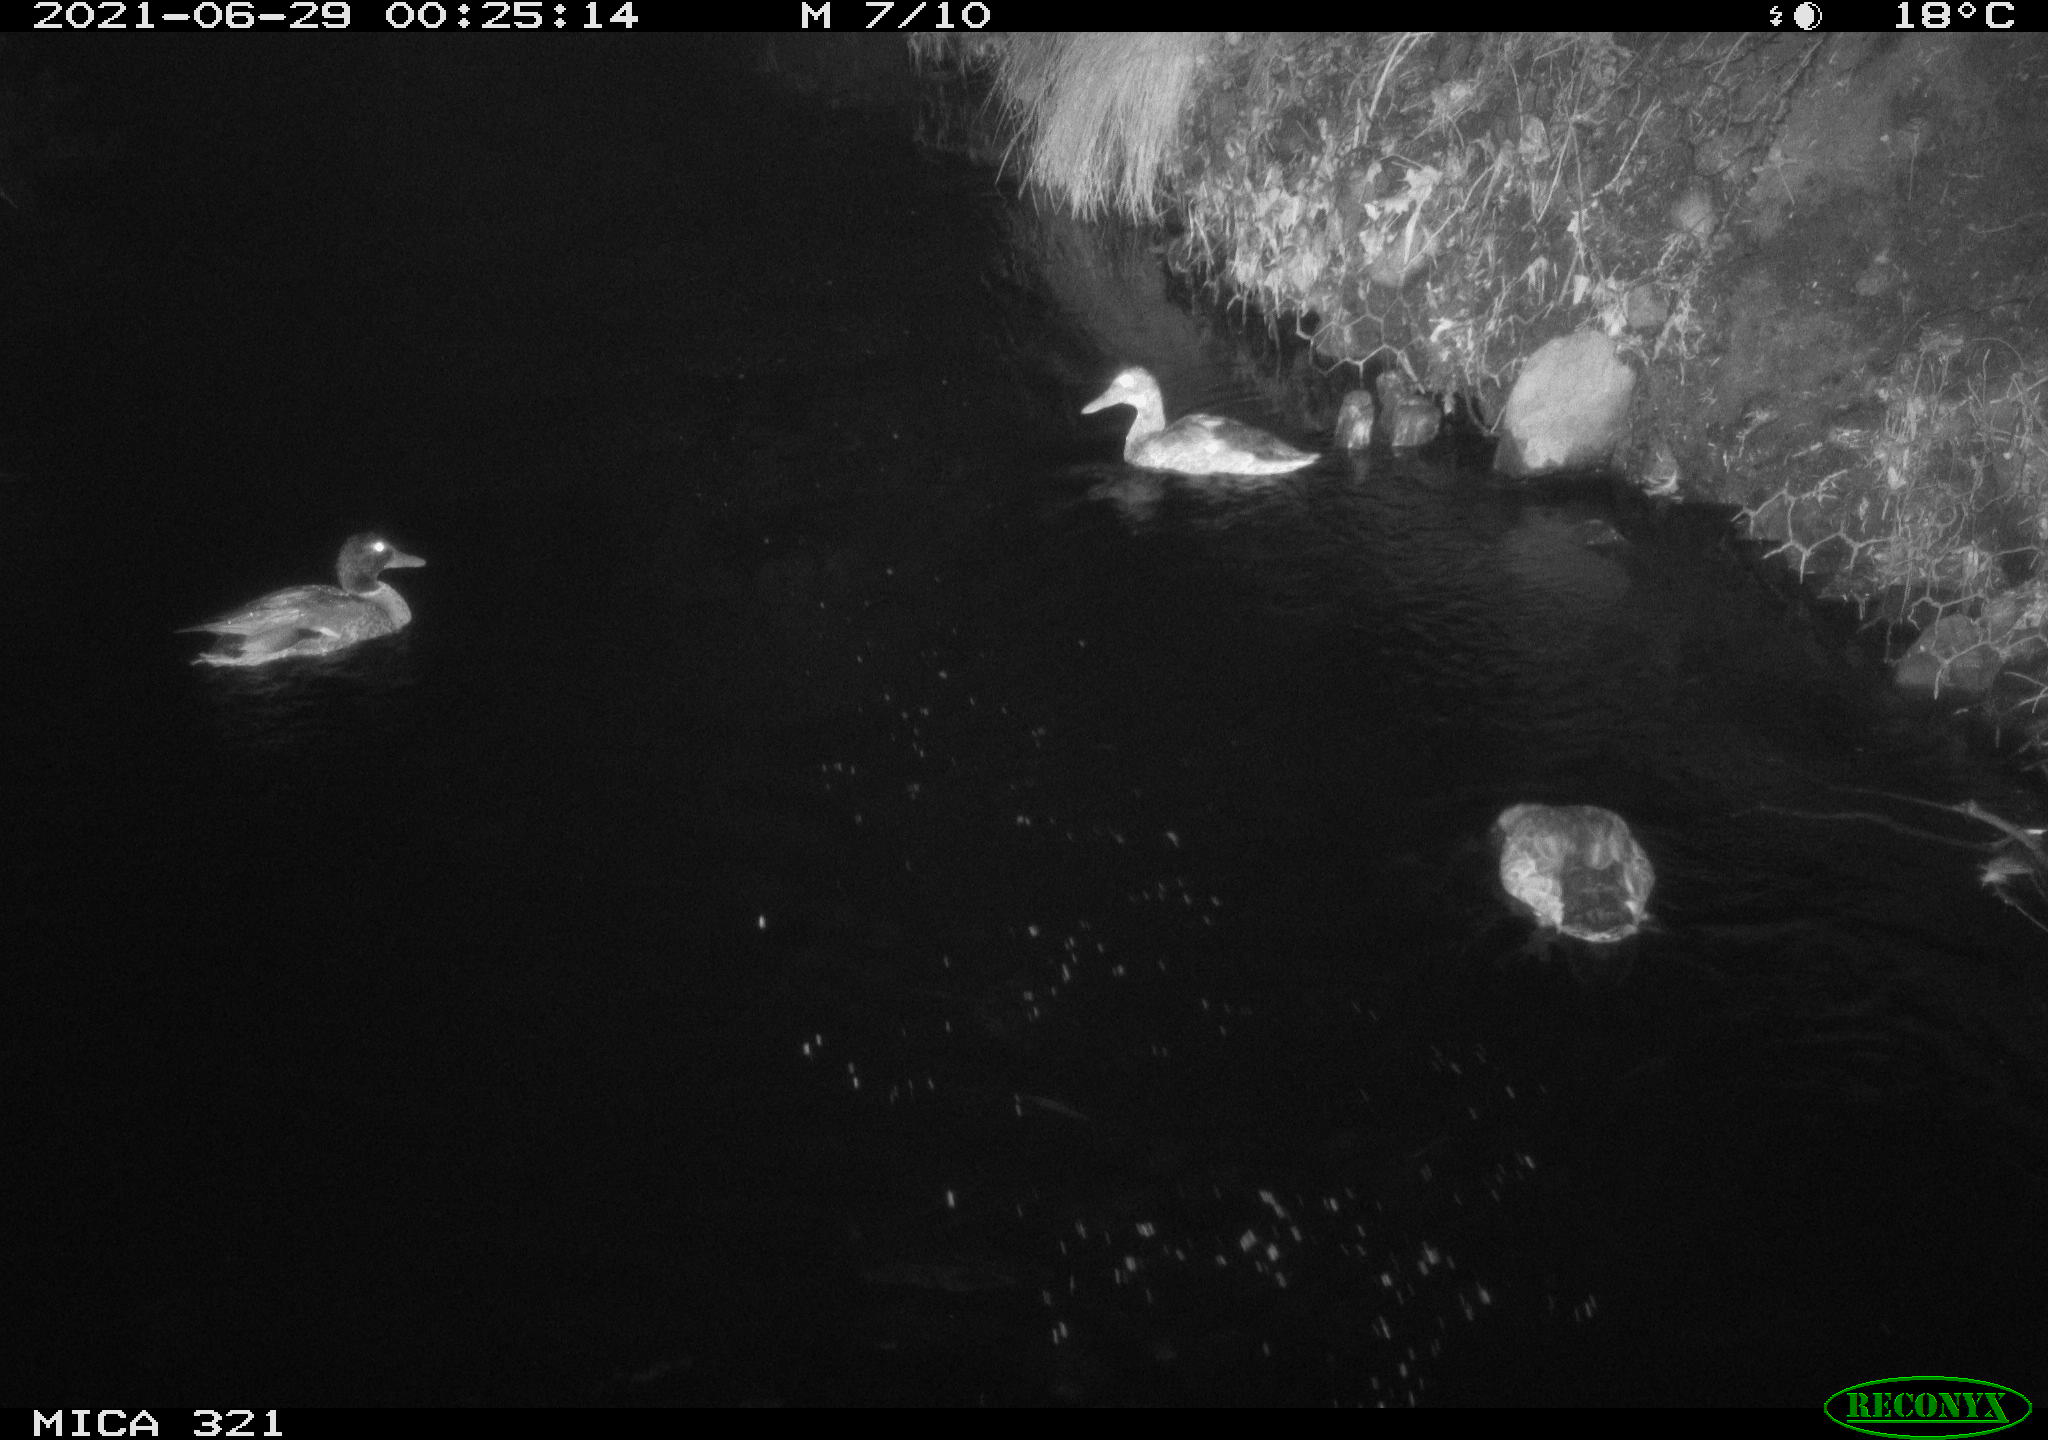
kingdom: Animalia
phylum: Chordata
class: Aves
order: Anseriformes
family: Anatidae
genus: Anas
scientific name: Anas platyrhynchos
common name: Mallard
